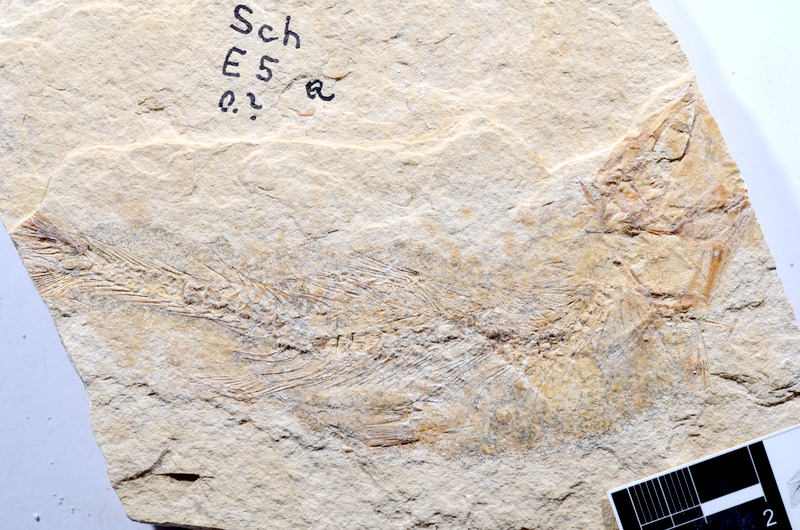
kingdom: Animalia
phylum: Chordata
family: Ascalaboidae
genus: Tharsis
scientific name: Tharsis dubius
